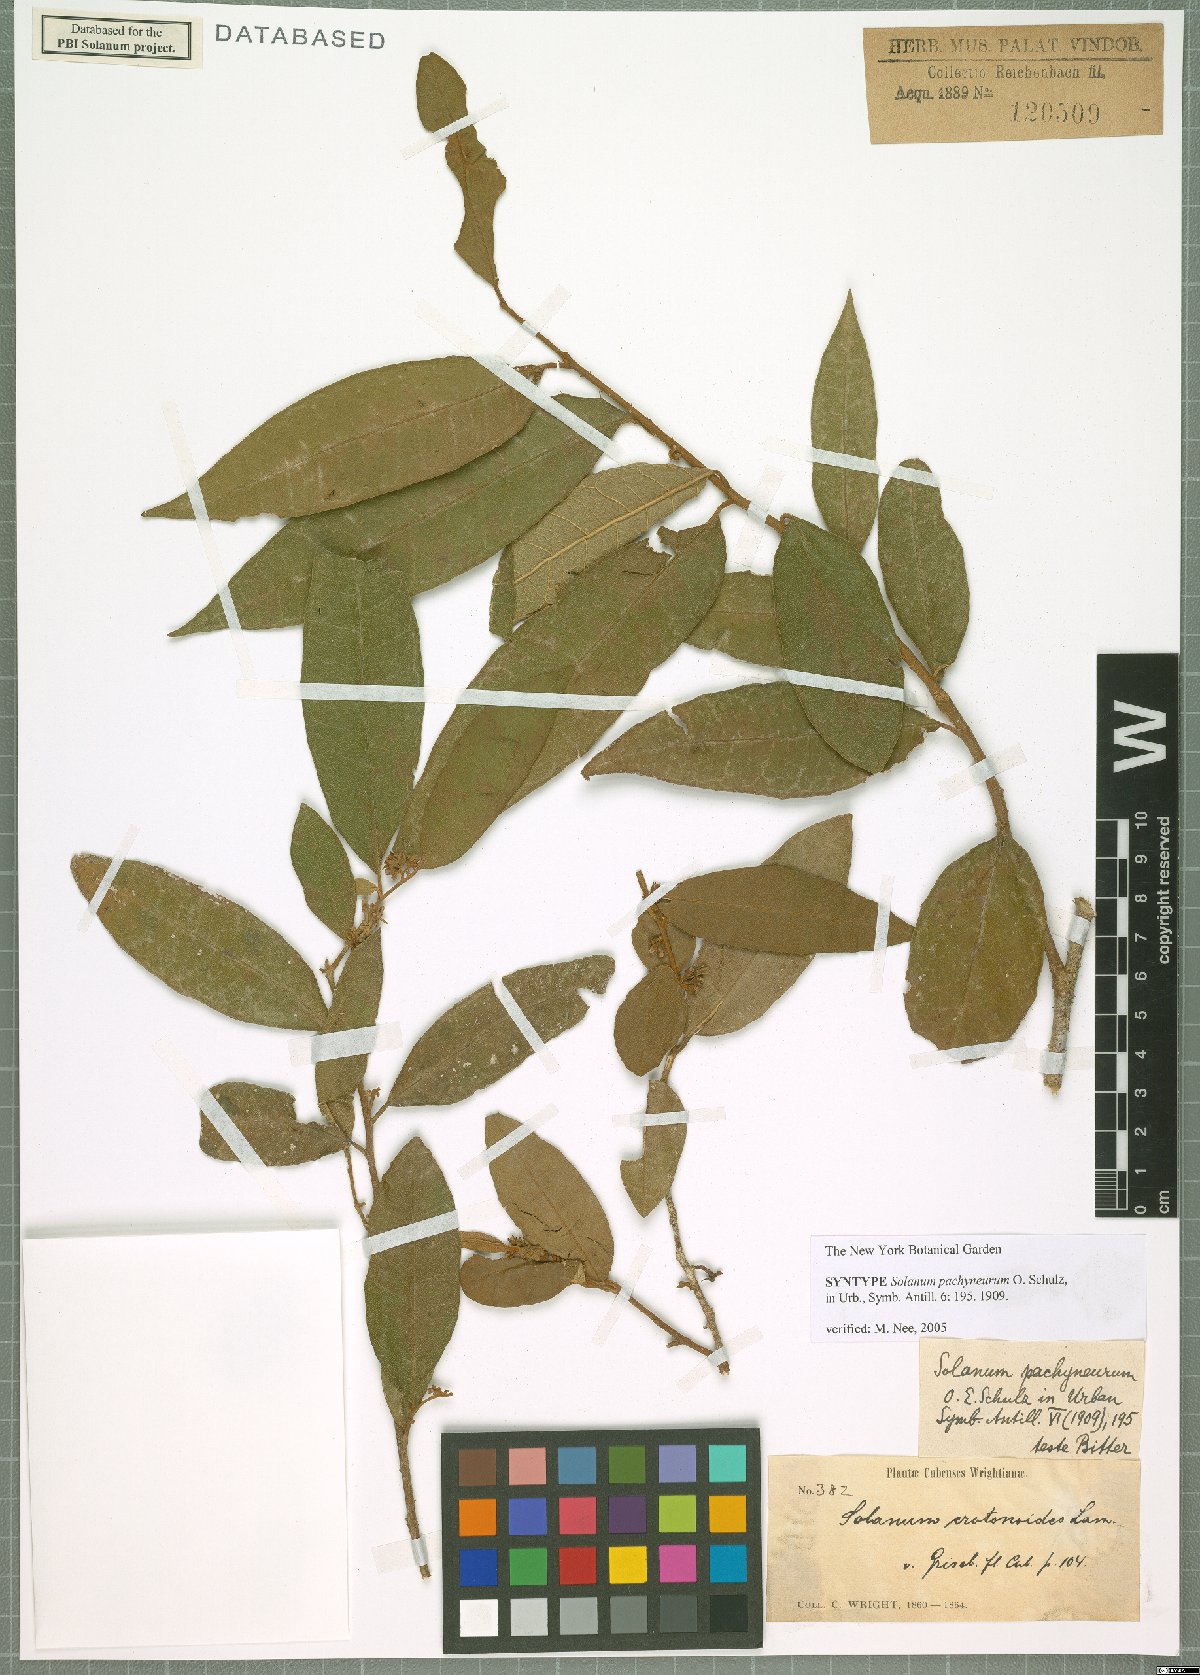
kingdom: Plantae
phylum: Tracheophyta
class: Magnoliopsida
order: Solanales
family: Solanaceae
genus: Solanum
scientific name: Solanum pachyneurum
